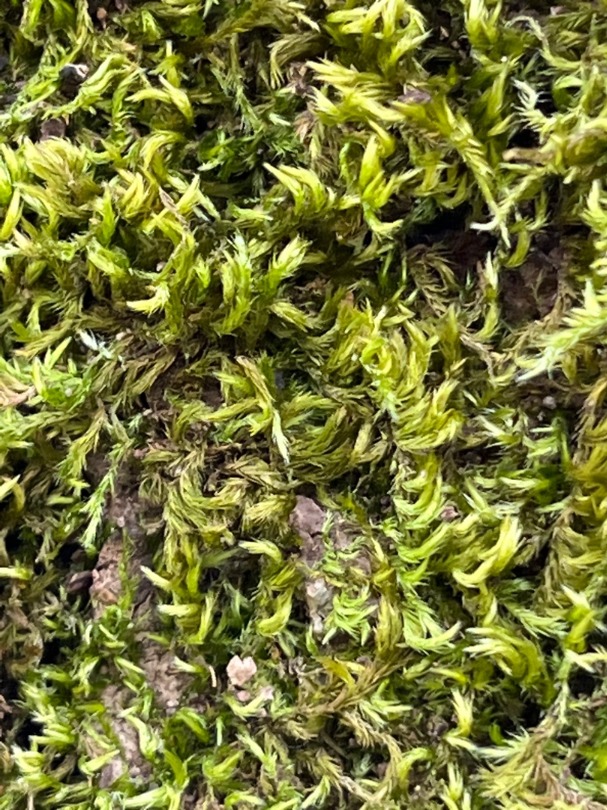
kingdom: Plantae
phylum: Bryophyta
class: Bryopsida
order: Hypnales
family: Brachytheciaceae
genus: Homalothecium
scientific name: Homalothecium sericeum
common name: Krybende silkemos
